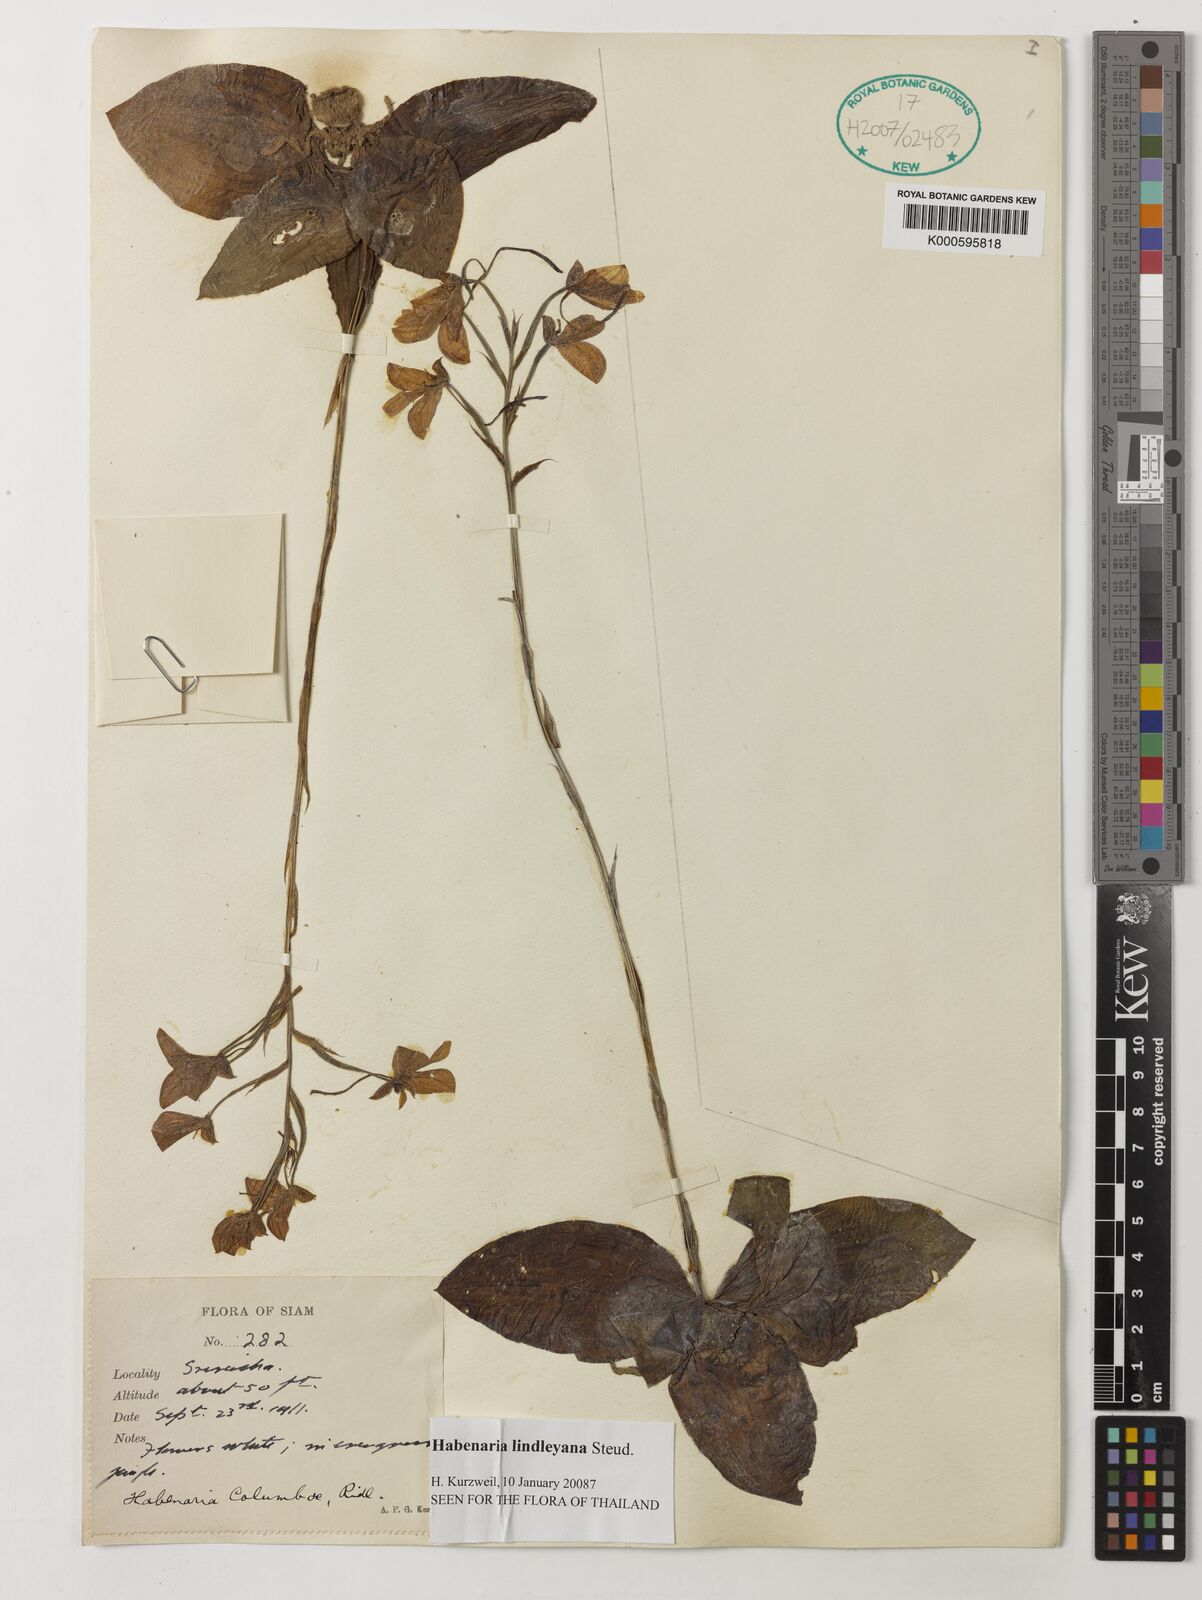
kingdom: Plantae
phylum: Tracheophyta
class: Liliopsida
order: Asparagales
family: Orchidaceae
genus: Habenaria
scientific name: Habenaria lindleyana
